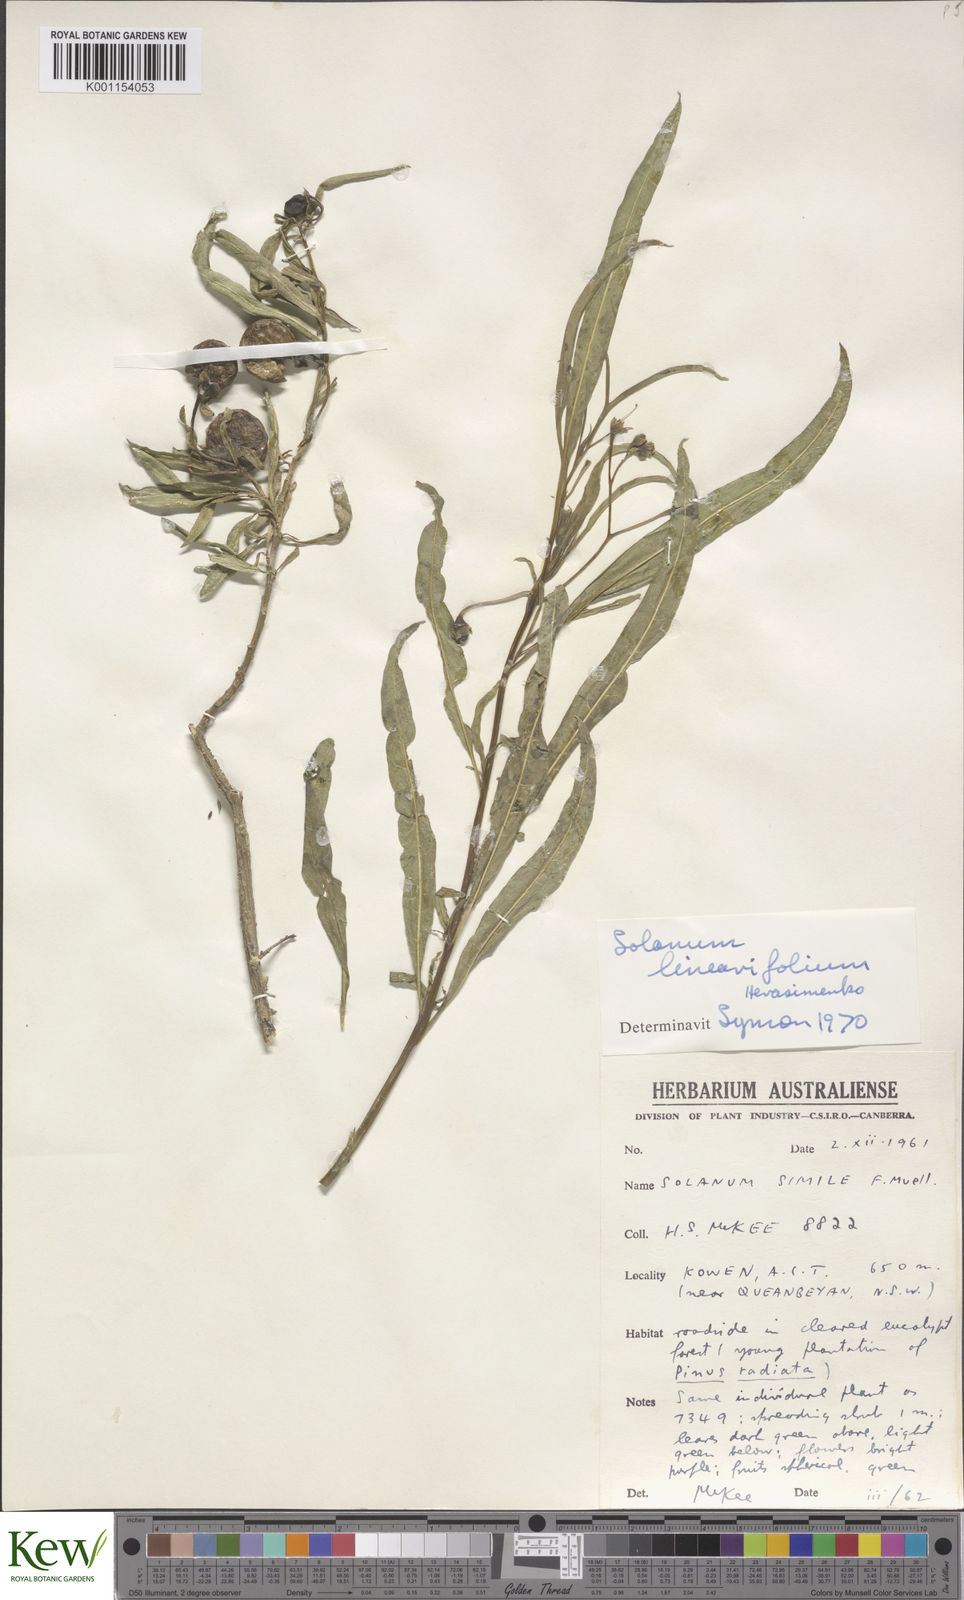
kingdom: Plantae
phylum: Tracheophyta
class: Magnoliopsida
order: Solanales
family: Solanaceae
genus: Solanum
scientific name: Solanum linearifolium
